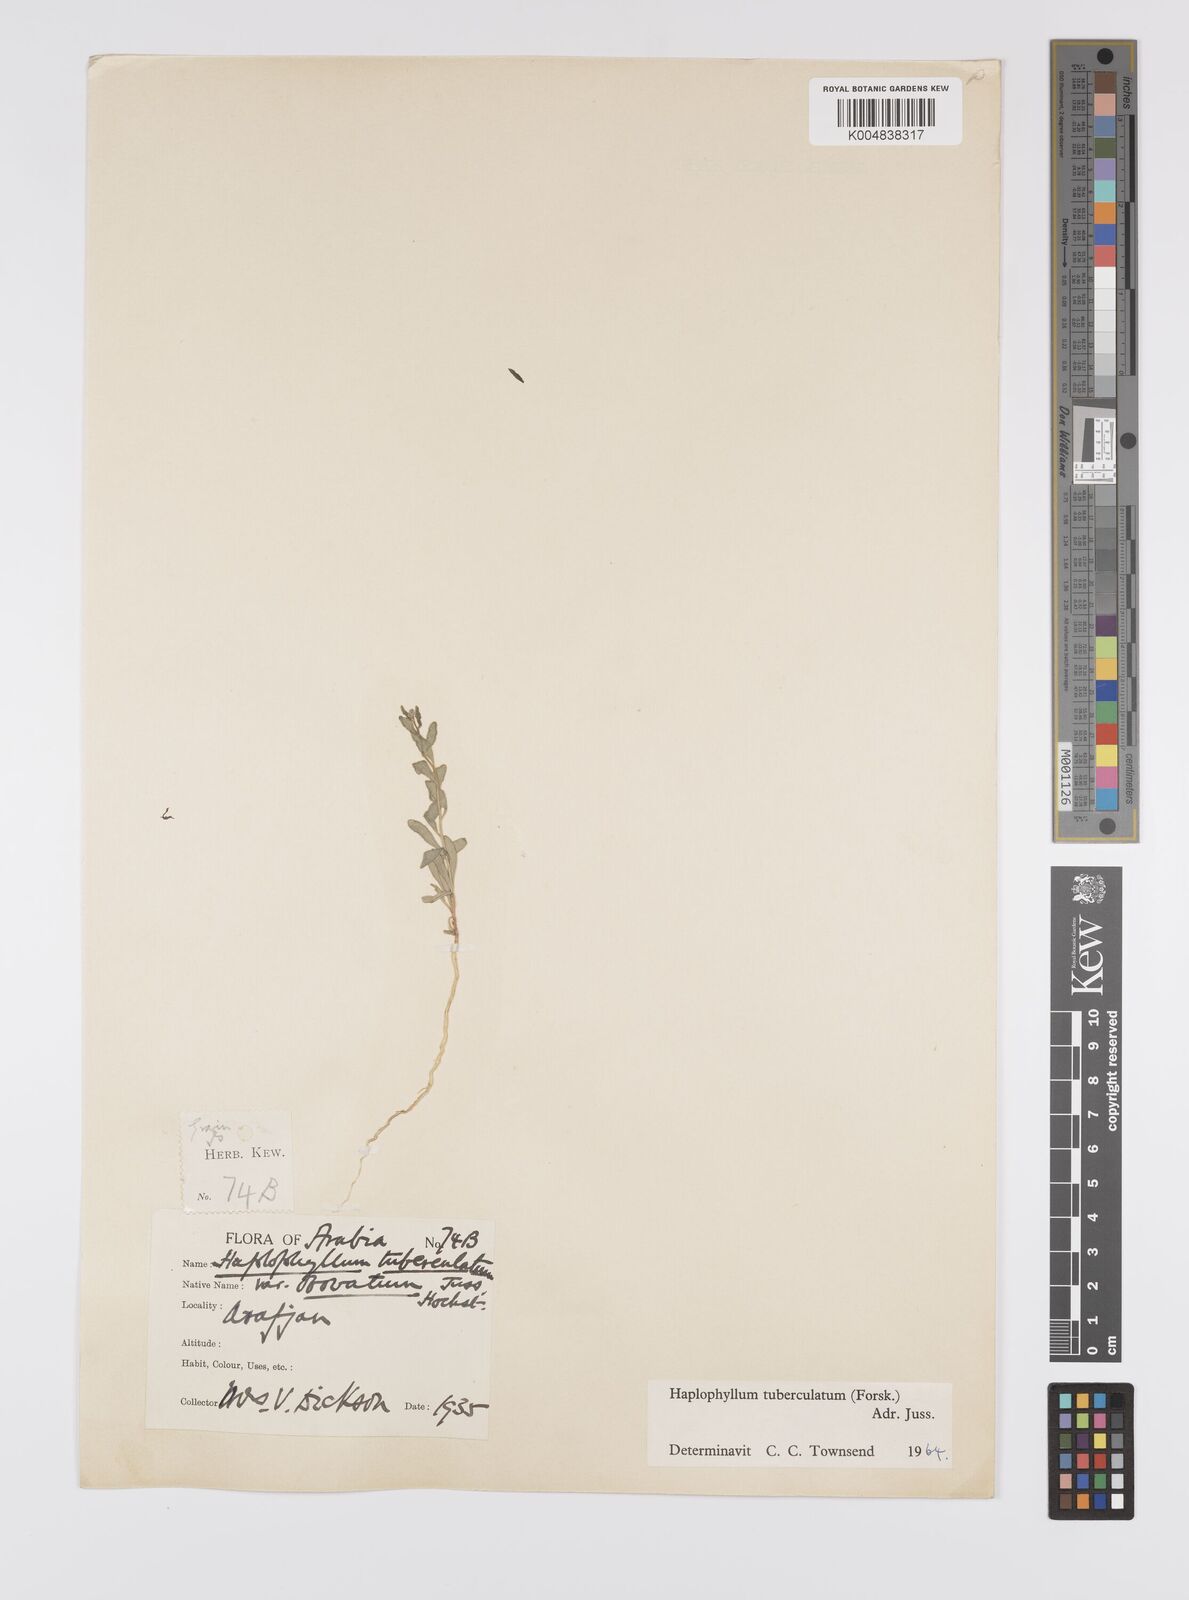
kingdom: Plantae
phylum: Tracheophyta
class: Magnoliopsida
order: Sapindales
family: Rutaceae
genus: Haplophyllum
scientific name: Haplophyllum tuberculatum
